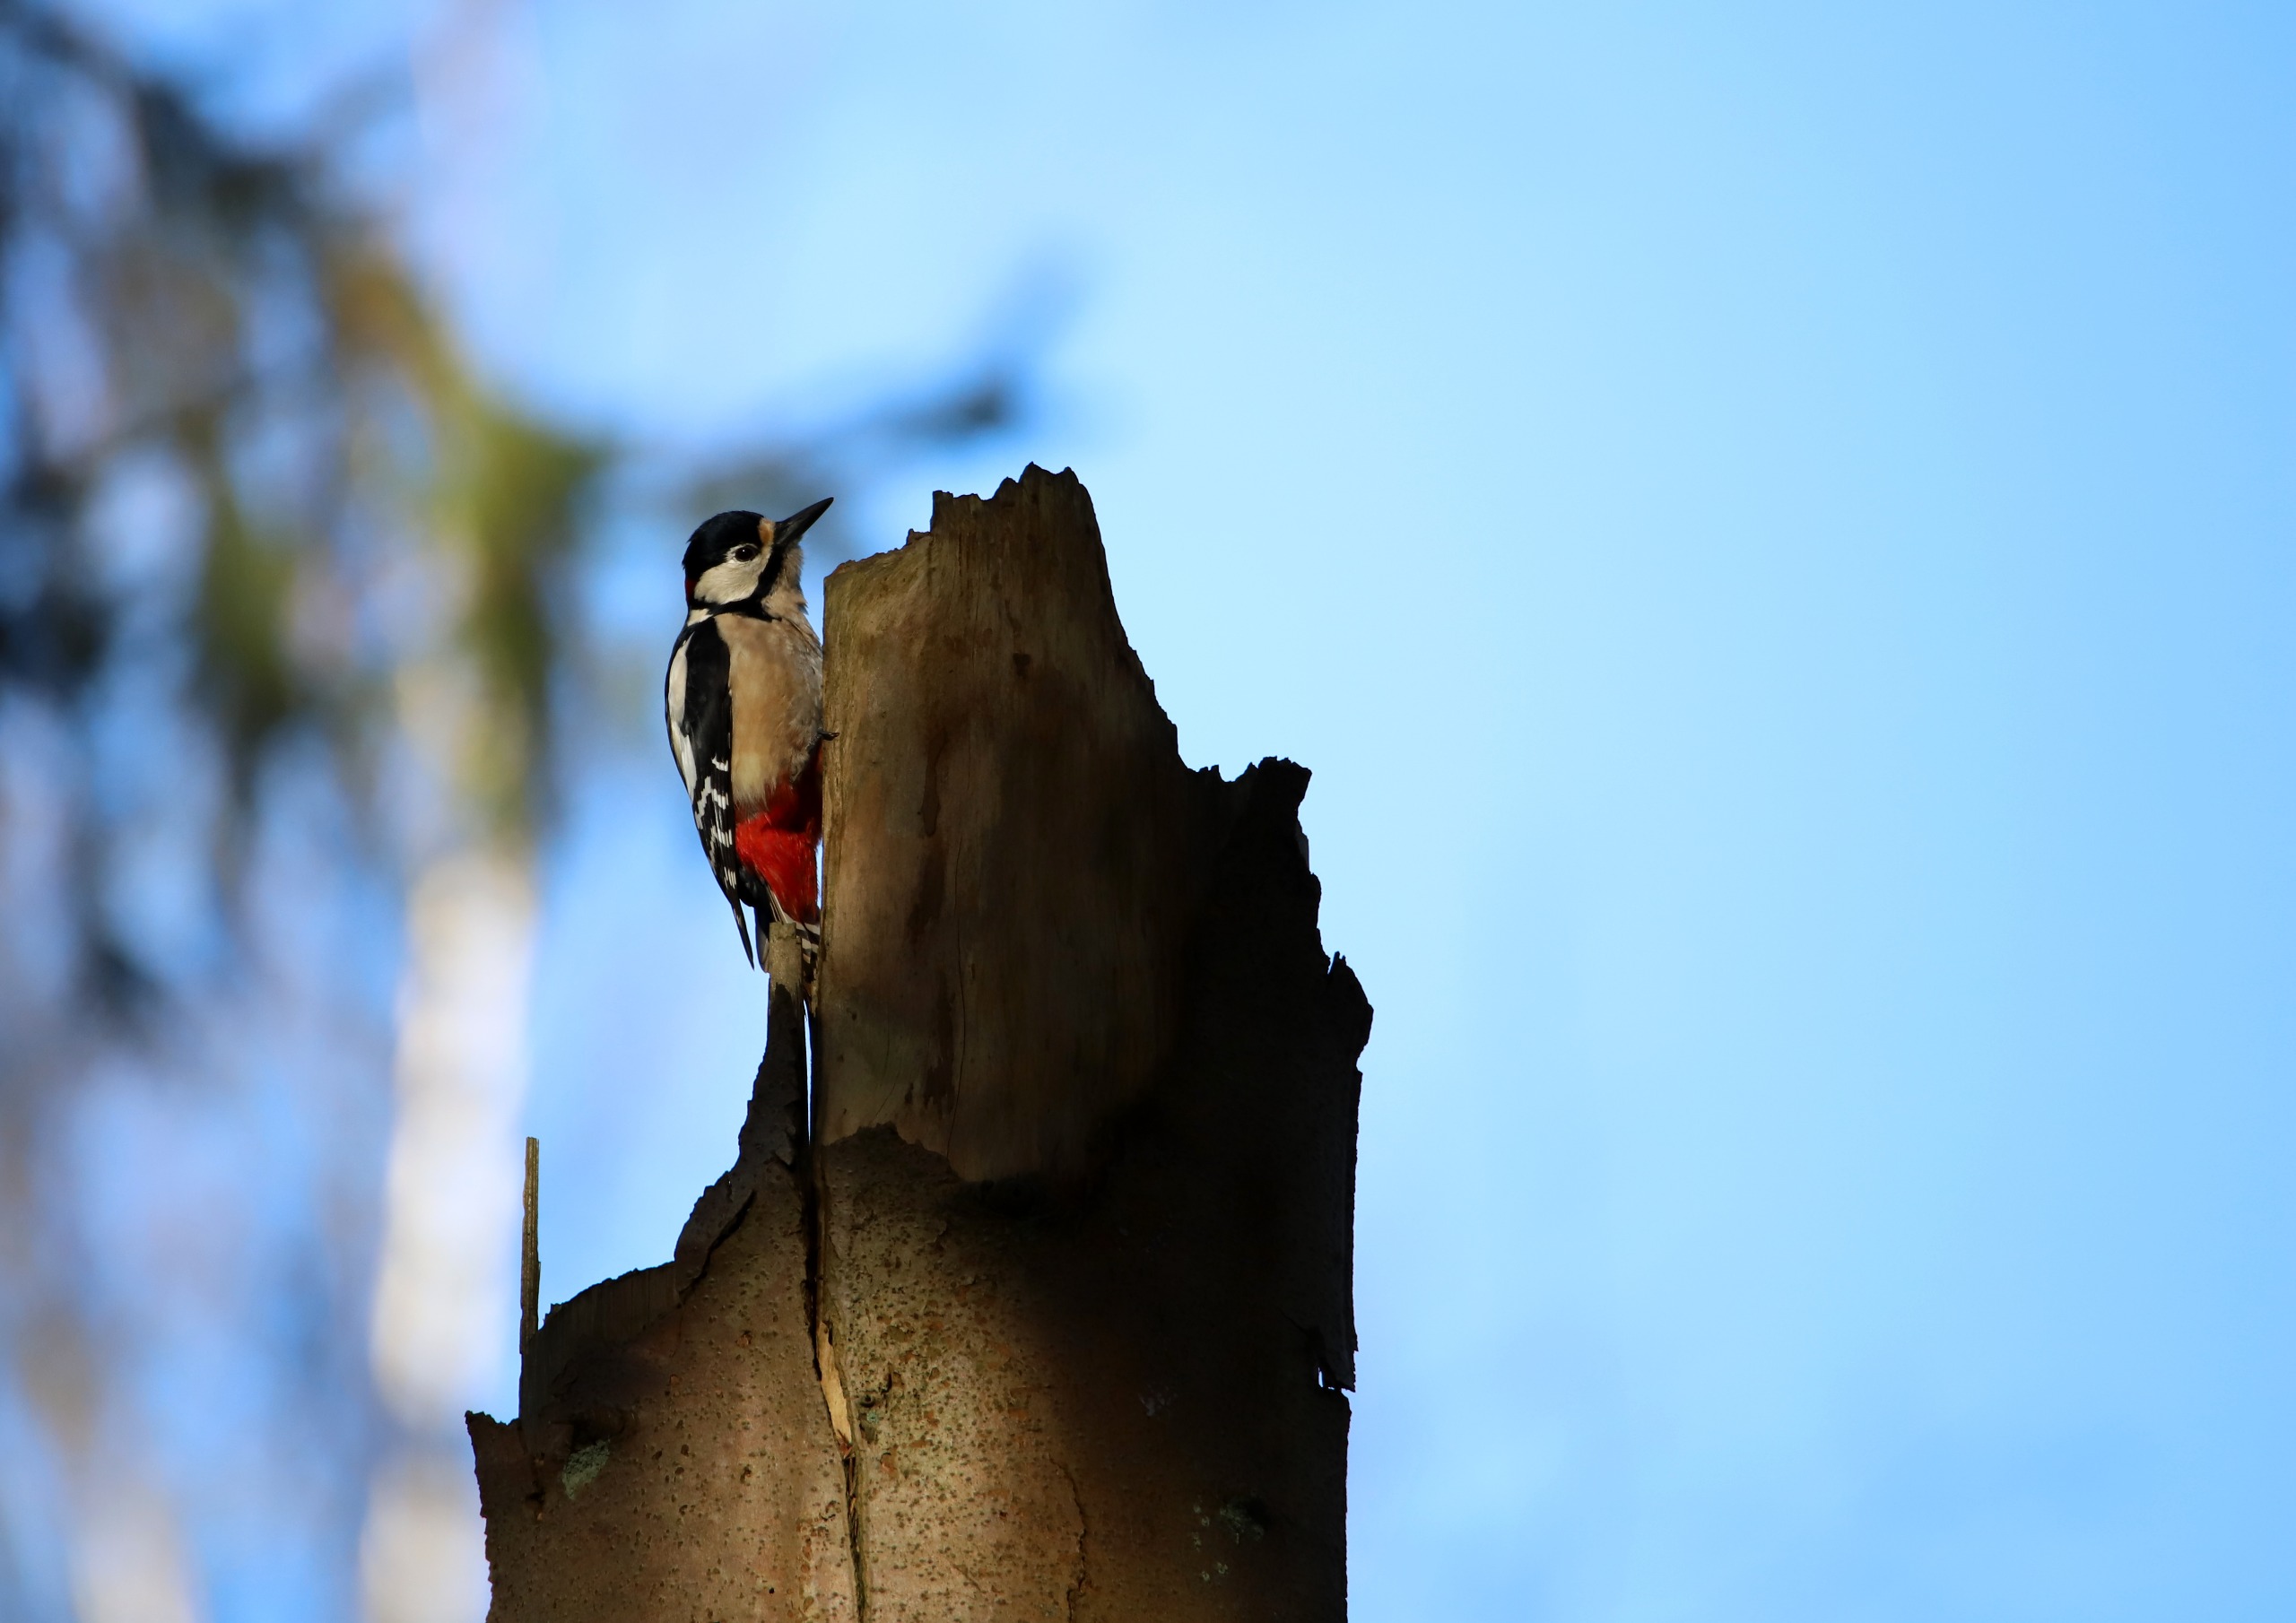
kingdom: Animalia
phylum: Chordata
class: Aves
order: Piciformes
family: Picidae
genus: Dendrocopos
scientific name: Dendrocopos major
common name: Stor flagspætte
